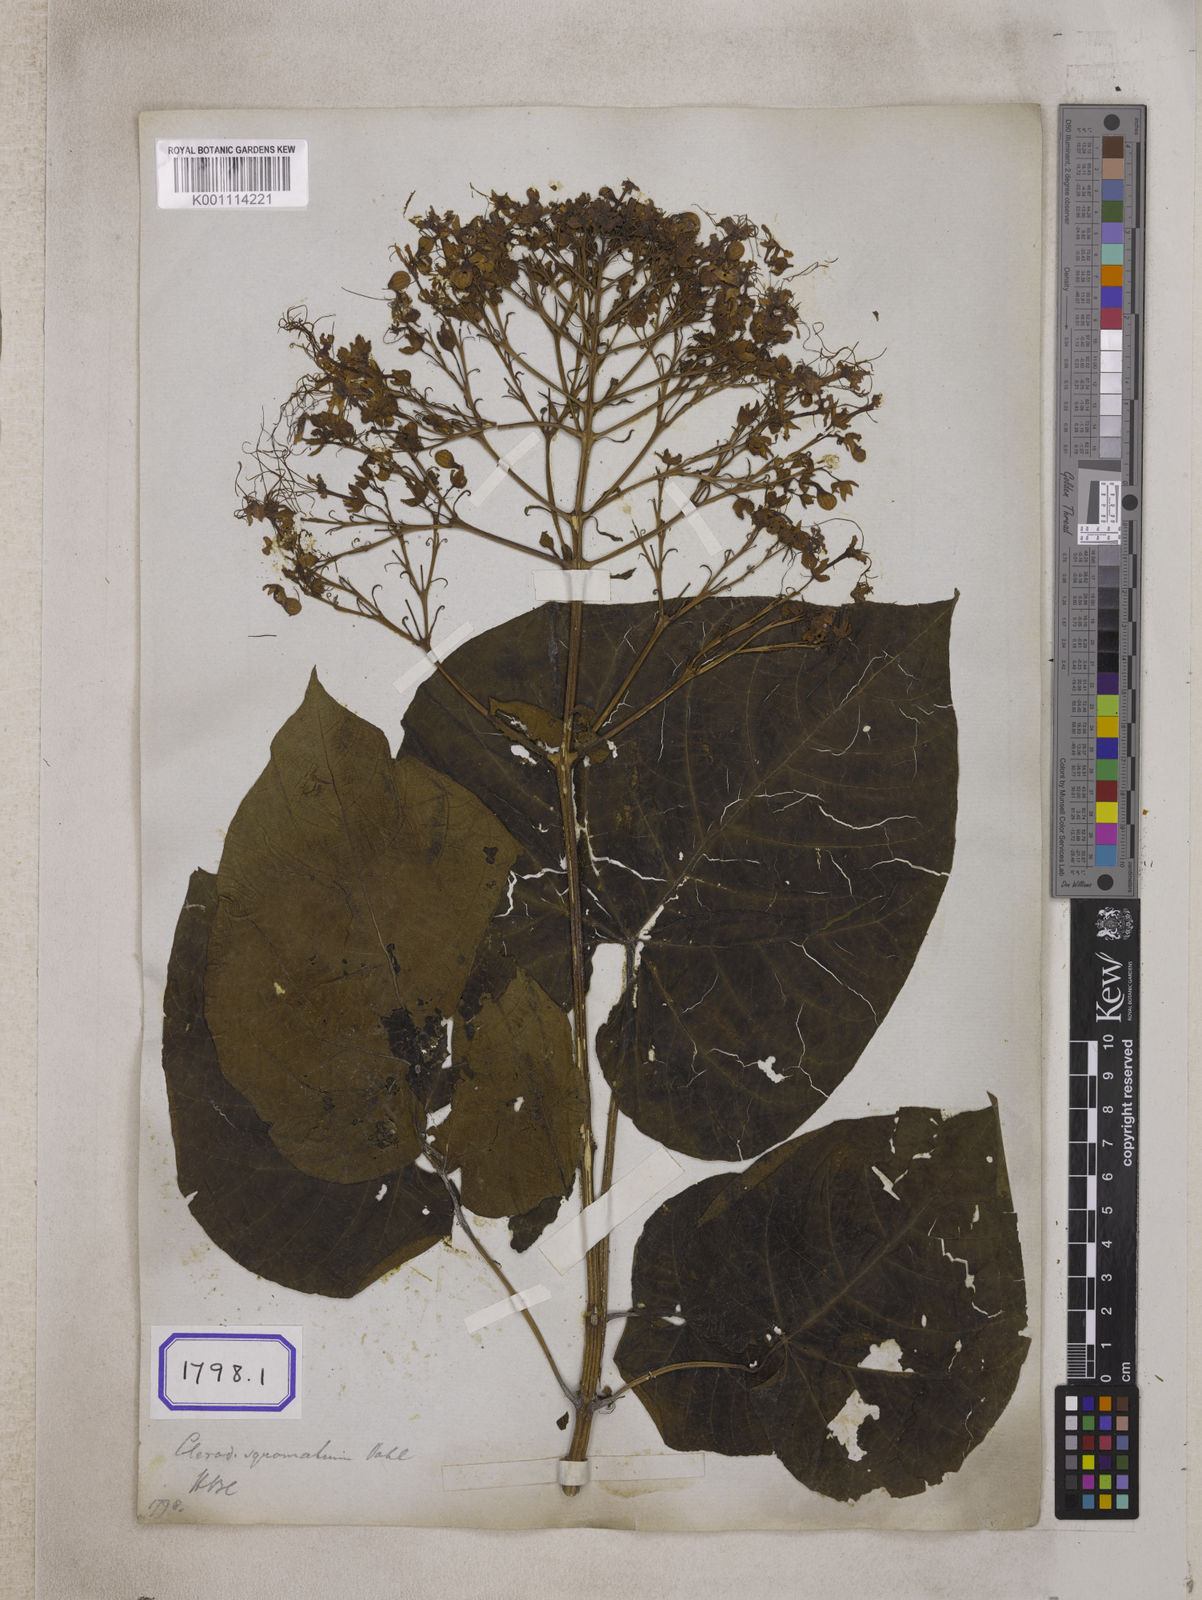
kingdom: Plantae
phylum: Tracheophyta
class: Magnoliopsida
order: Lamiales
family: Lamiaceae
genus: Clerodendrum
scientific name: Clerodendrum japonicum
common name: Japanese glorybower
